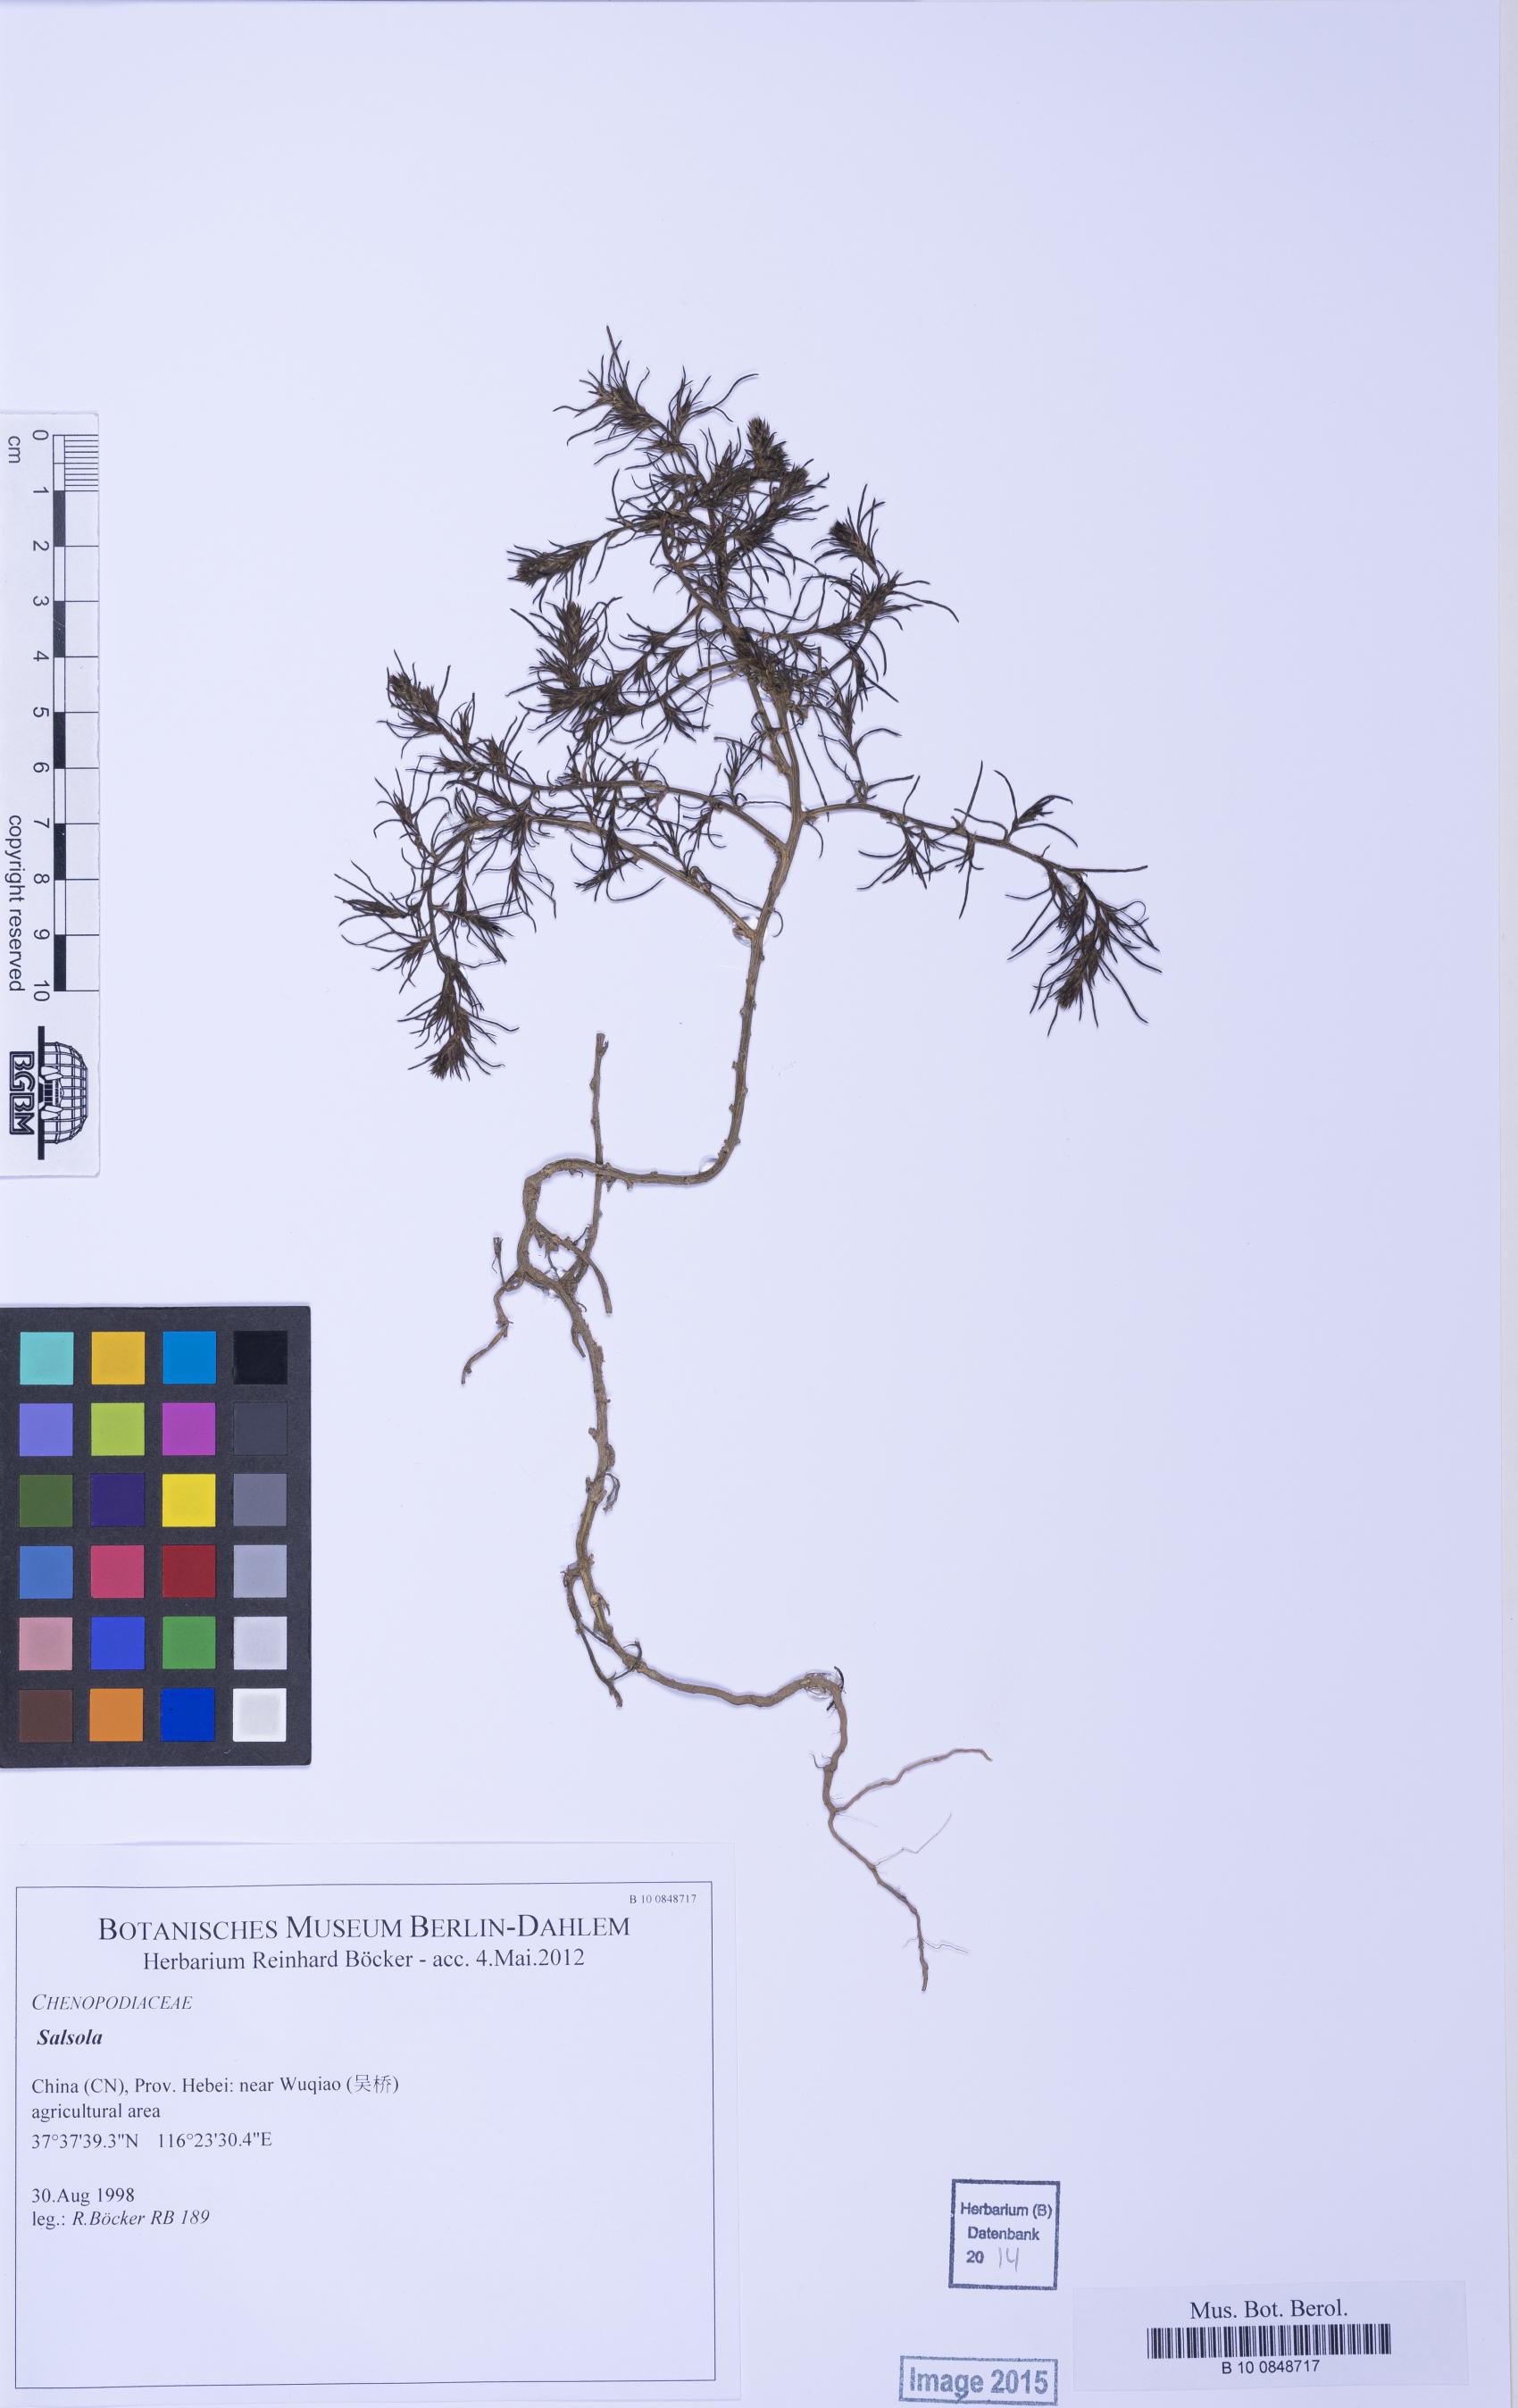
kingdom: Plantae
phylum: Tracheophyta
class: Magnoliopsida
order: Caryophyllales
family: Amaranthaceae
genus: Salsola
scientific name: Salsola
